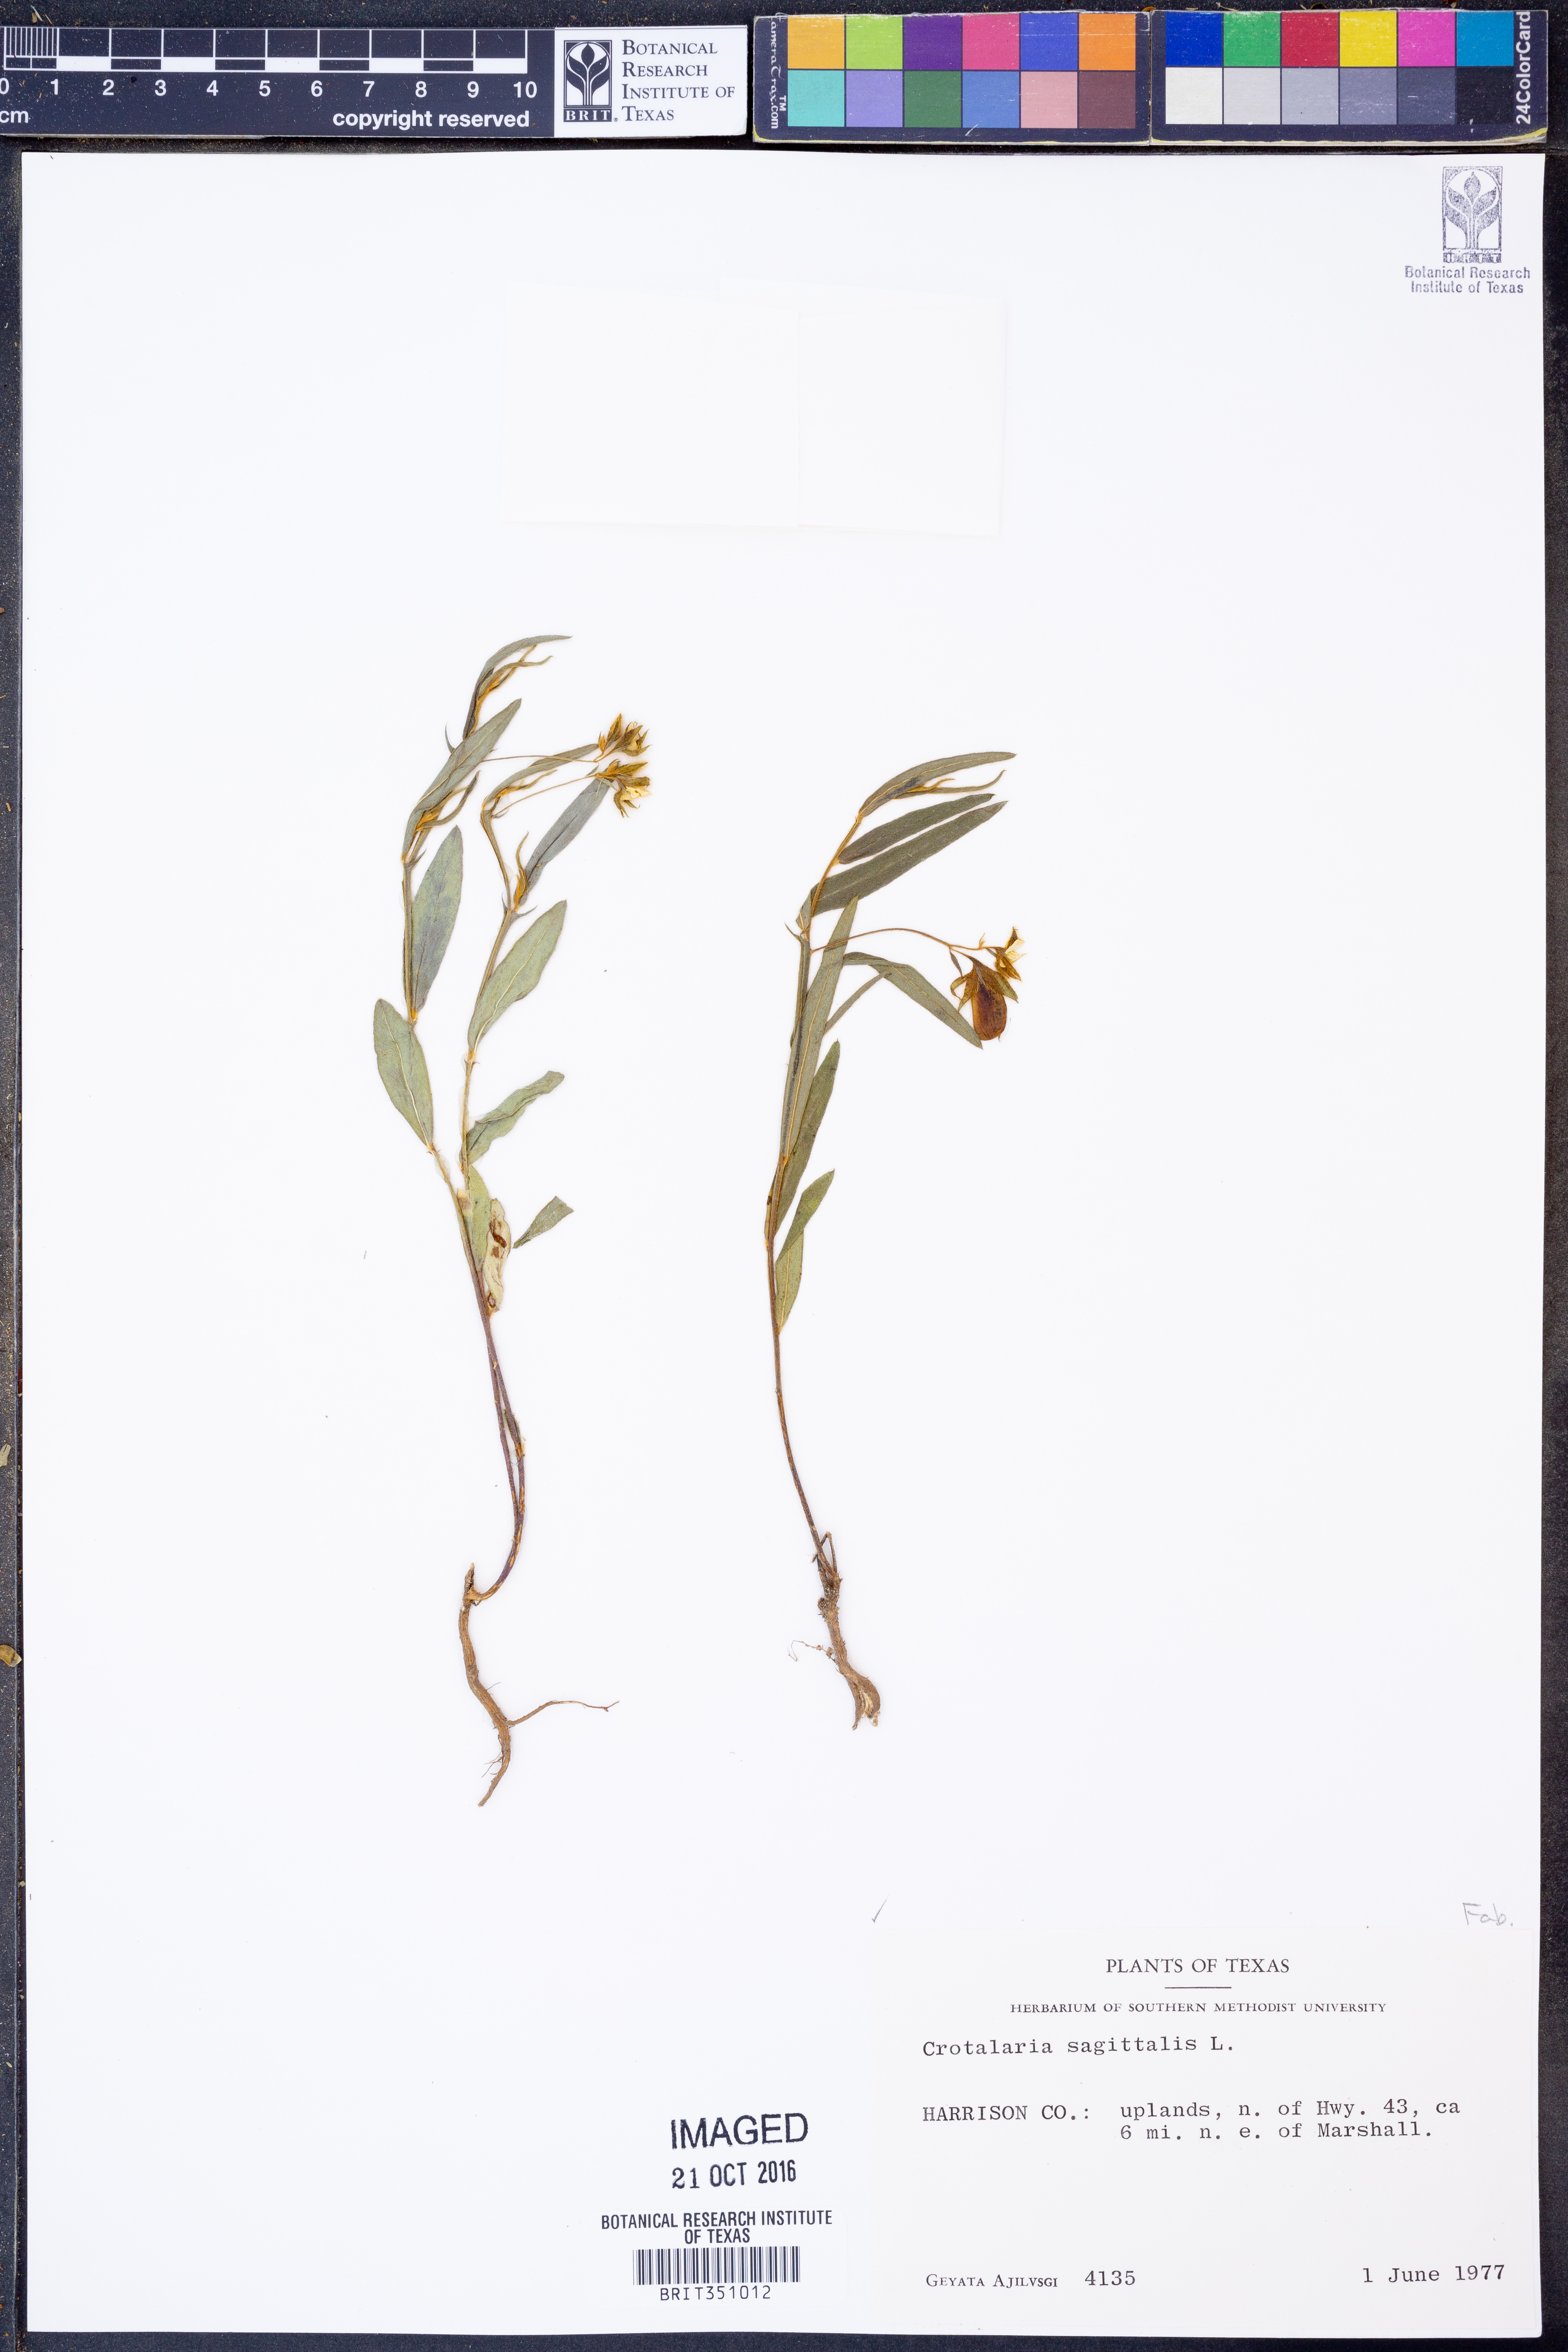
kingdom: Plantae
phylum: Tracheophyta
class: Magnoliopsida
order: Fabales
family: Fabaceae
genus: Crotalaria
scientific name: Crotalaria sagittalis
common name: Arrowhead rattlebox
